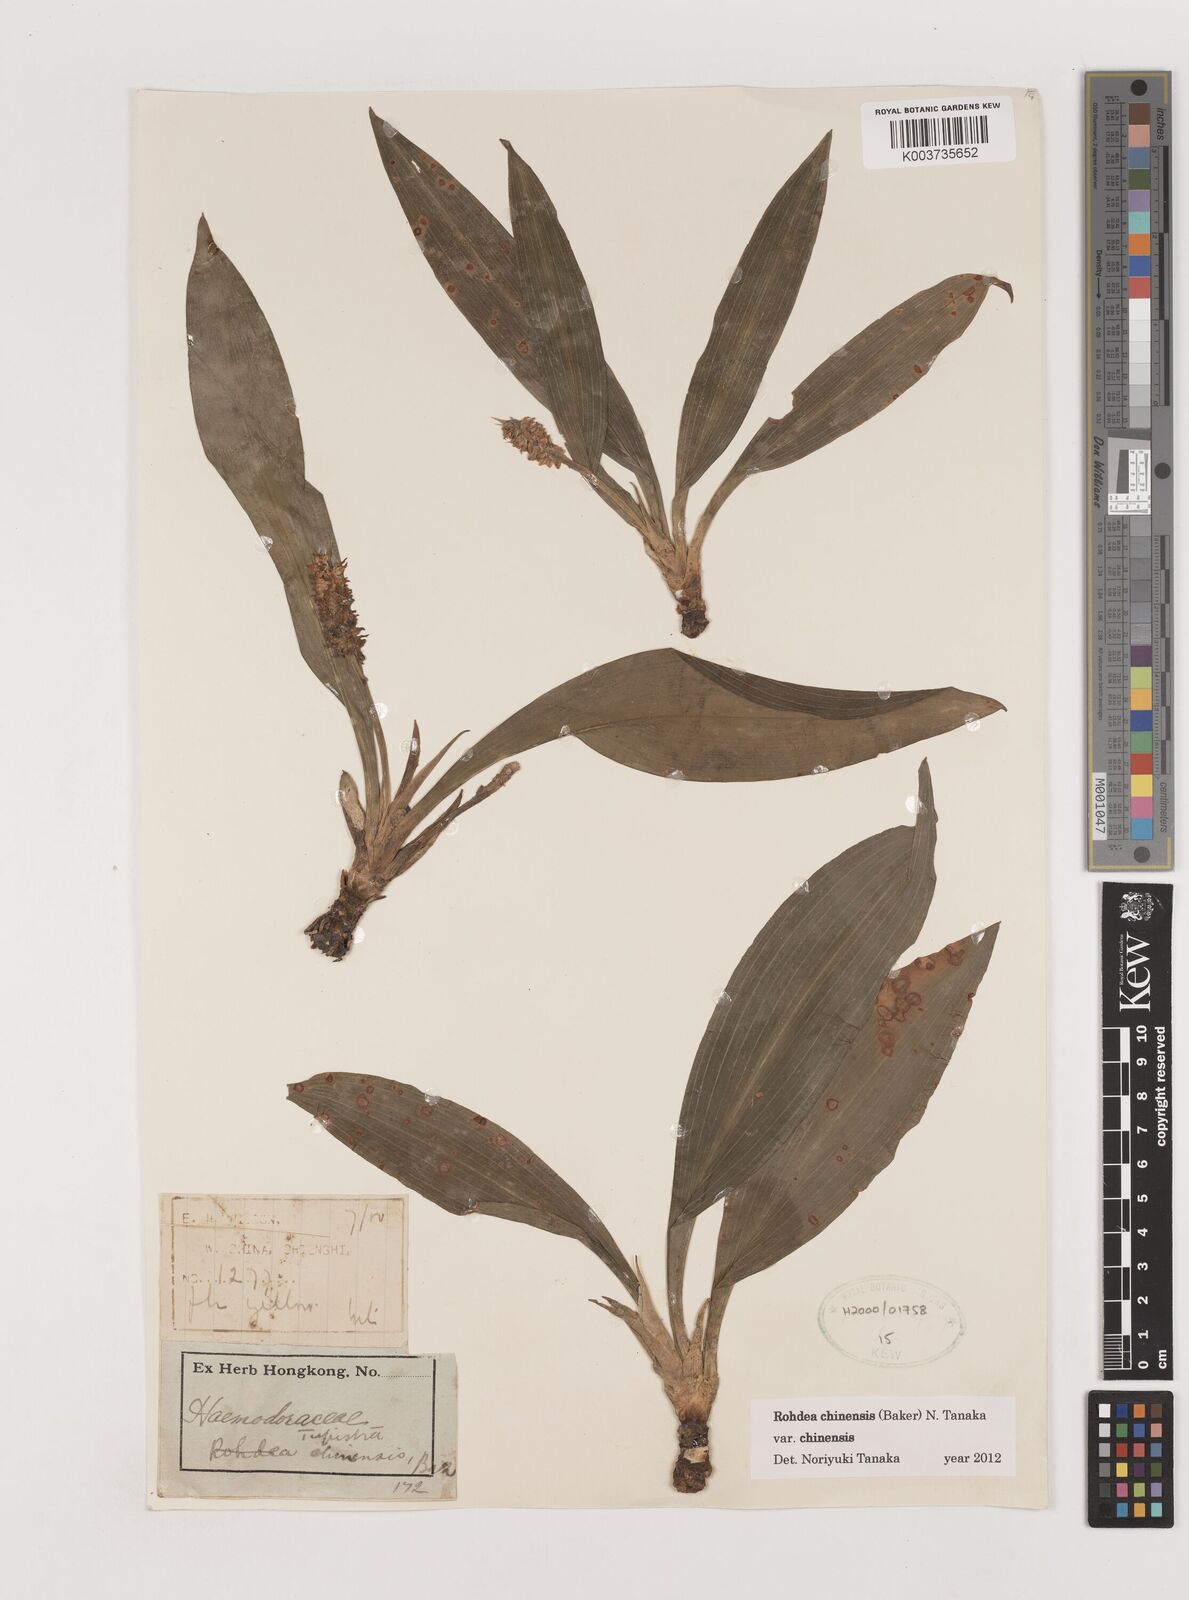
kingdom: Plantae
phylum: Tracheophyta
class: Liliopsida
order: Asparagales
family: Asparagaceae
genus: Rohdea
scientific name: Rohdea fargesii
